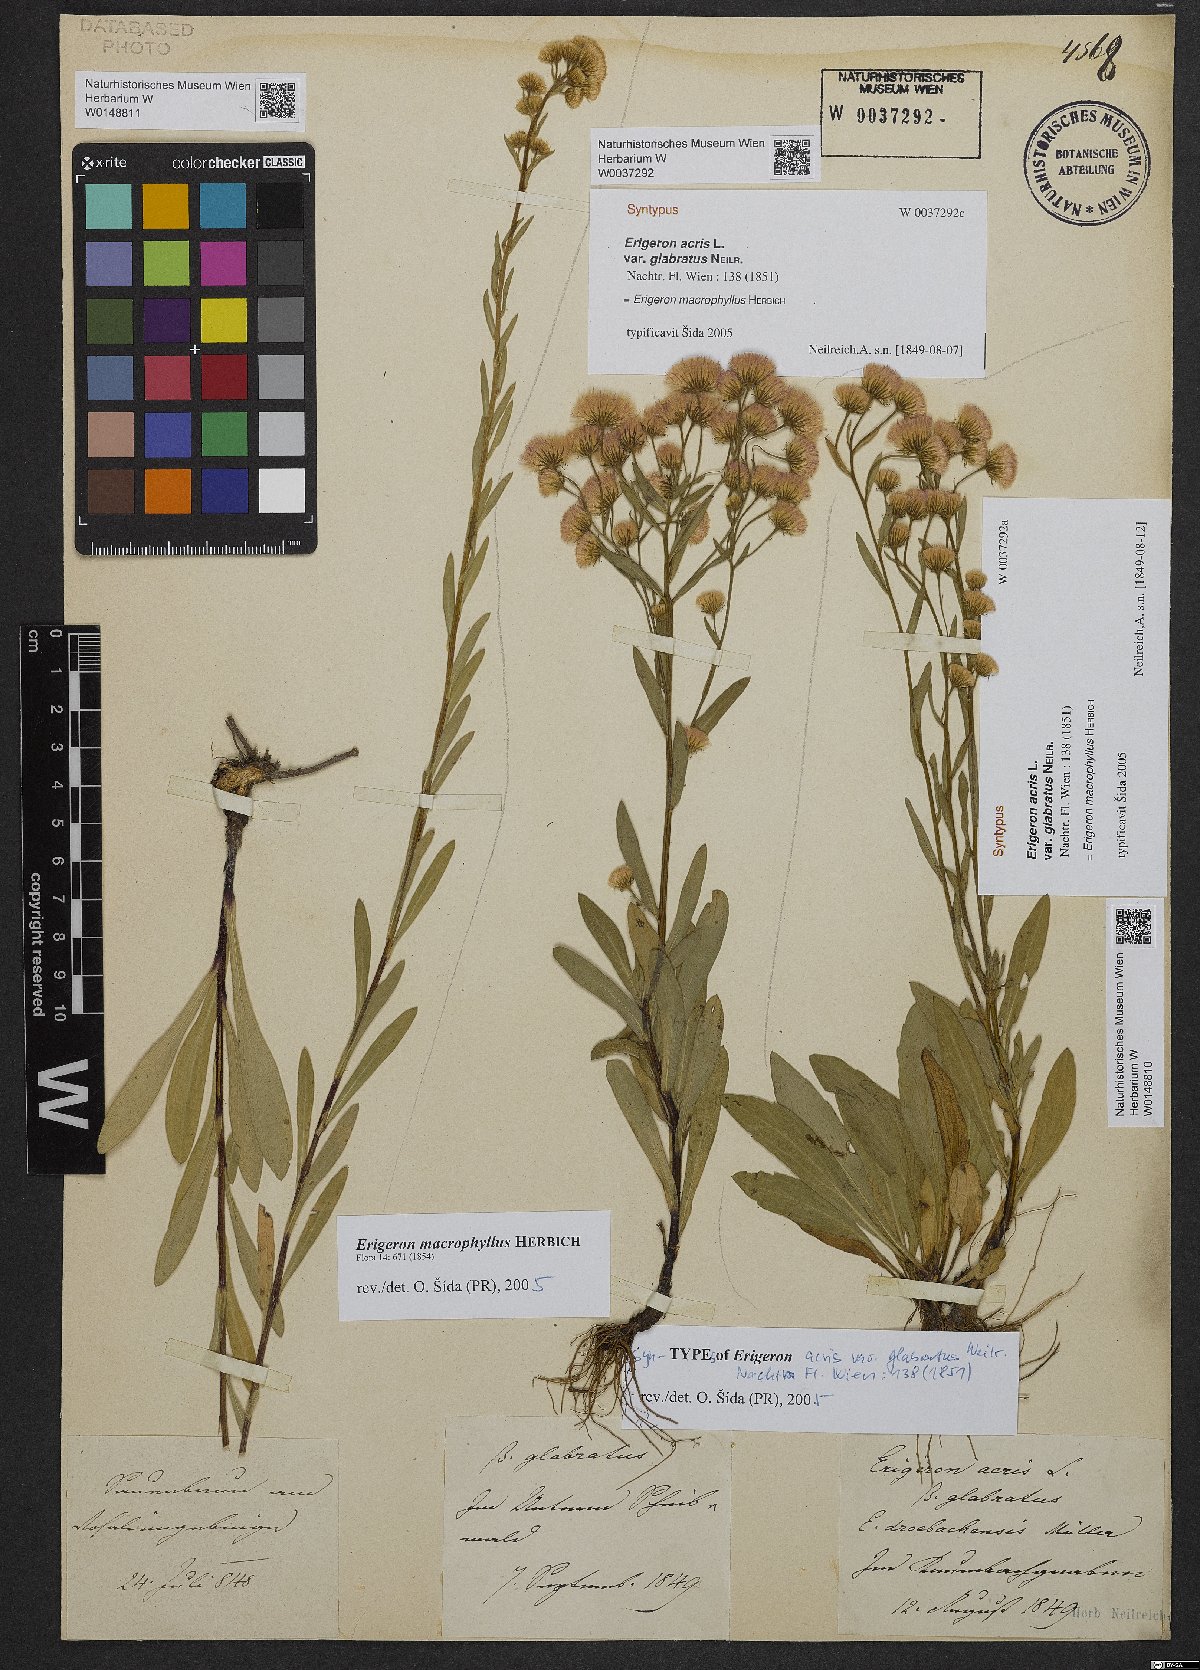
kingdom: Plantae
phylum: Tracheophyta
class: Magnoliopsida
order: Asterales
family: Asteraceae
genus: Erigeron
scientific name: Erigeron macrophyllus
